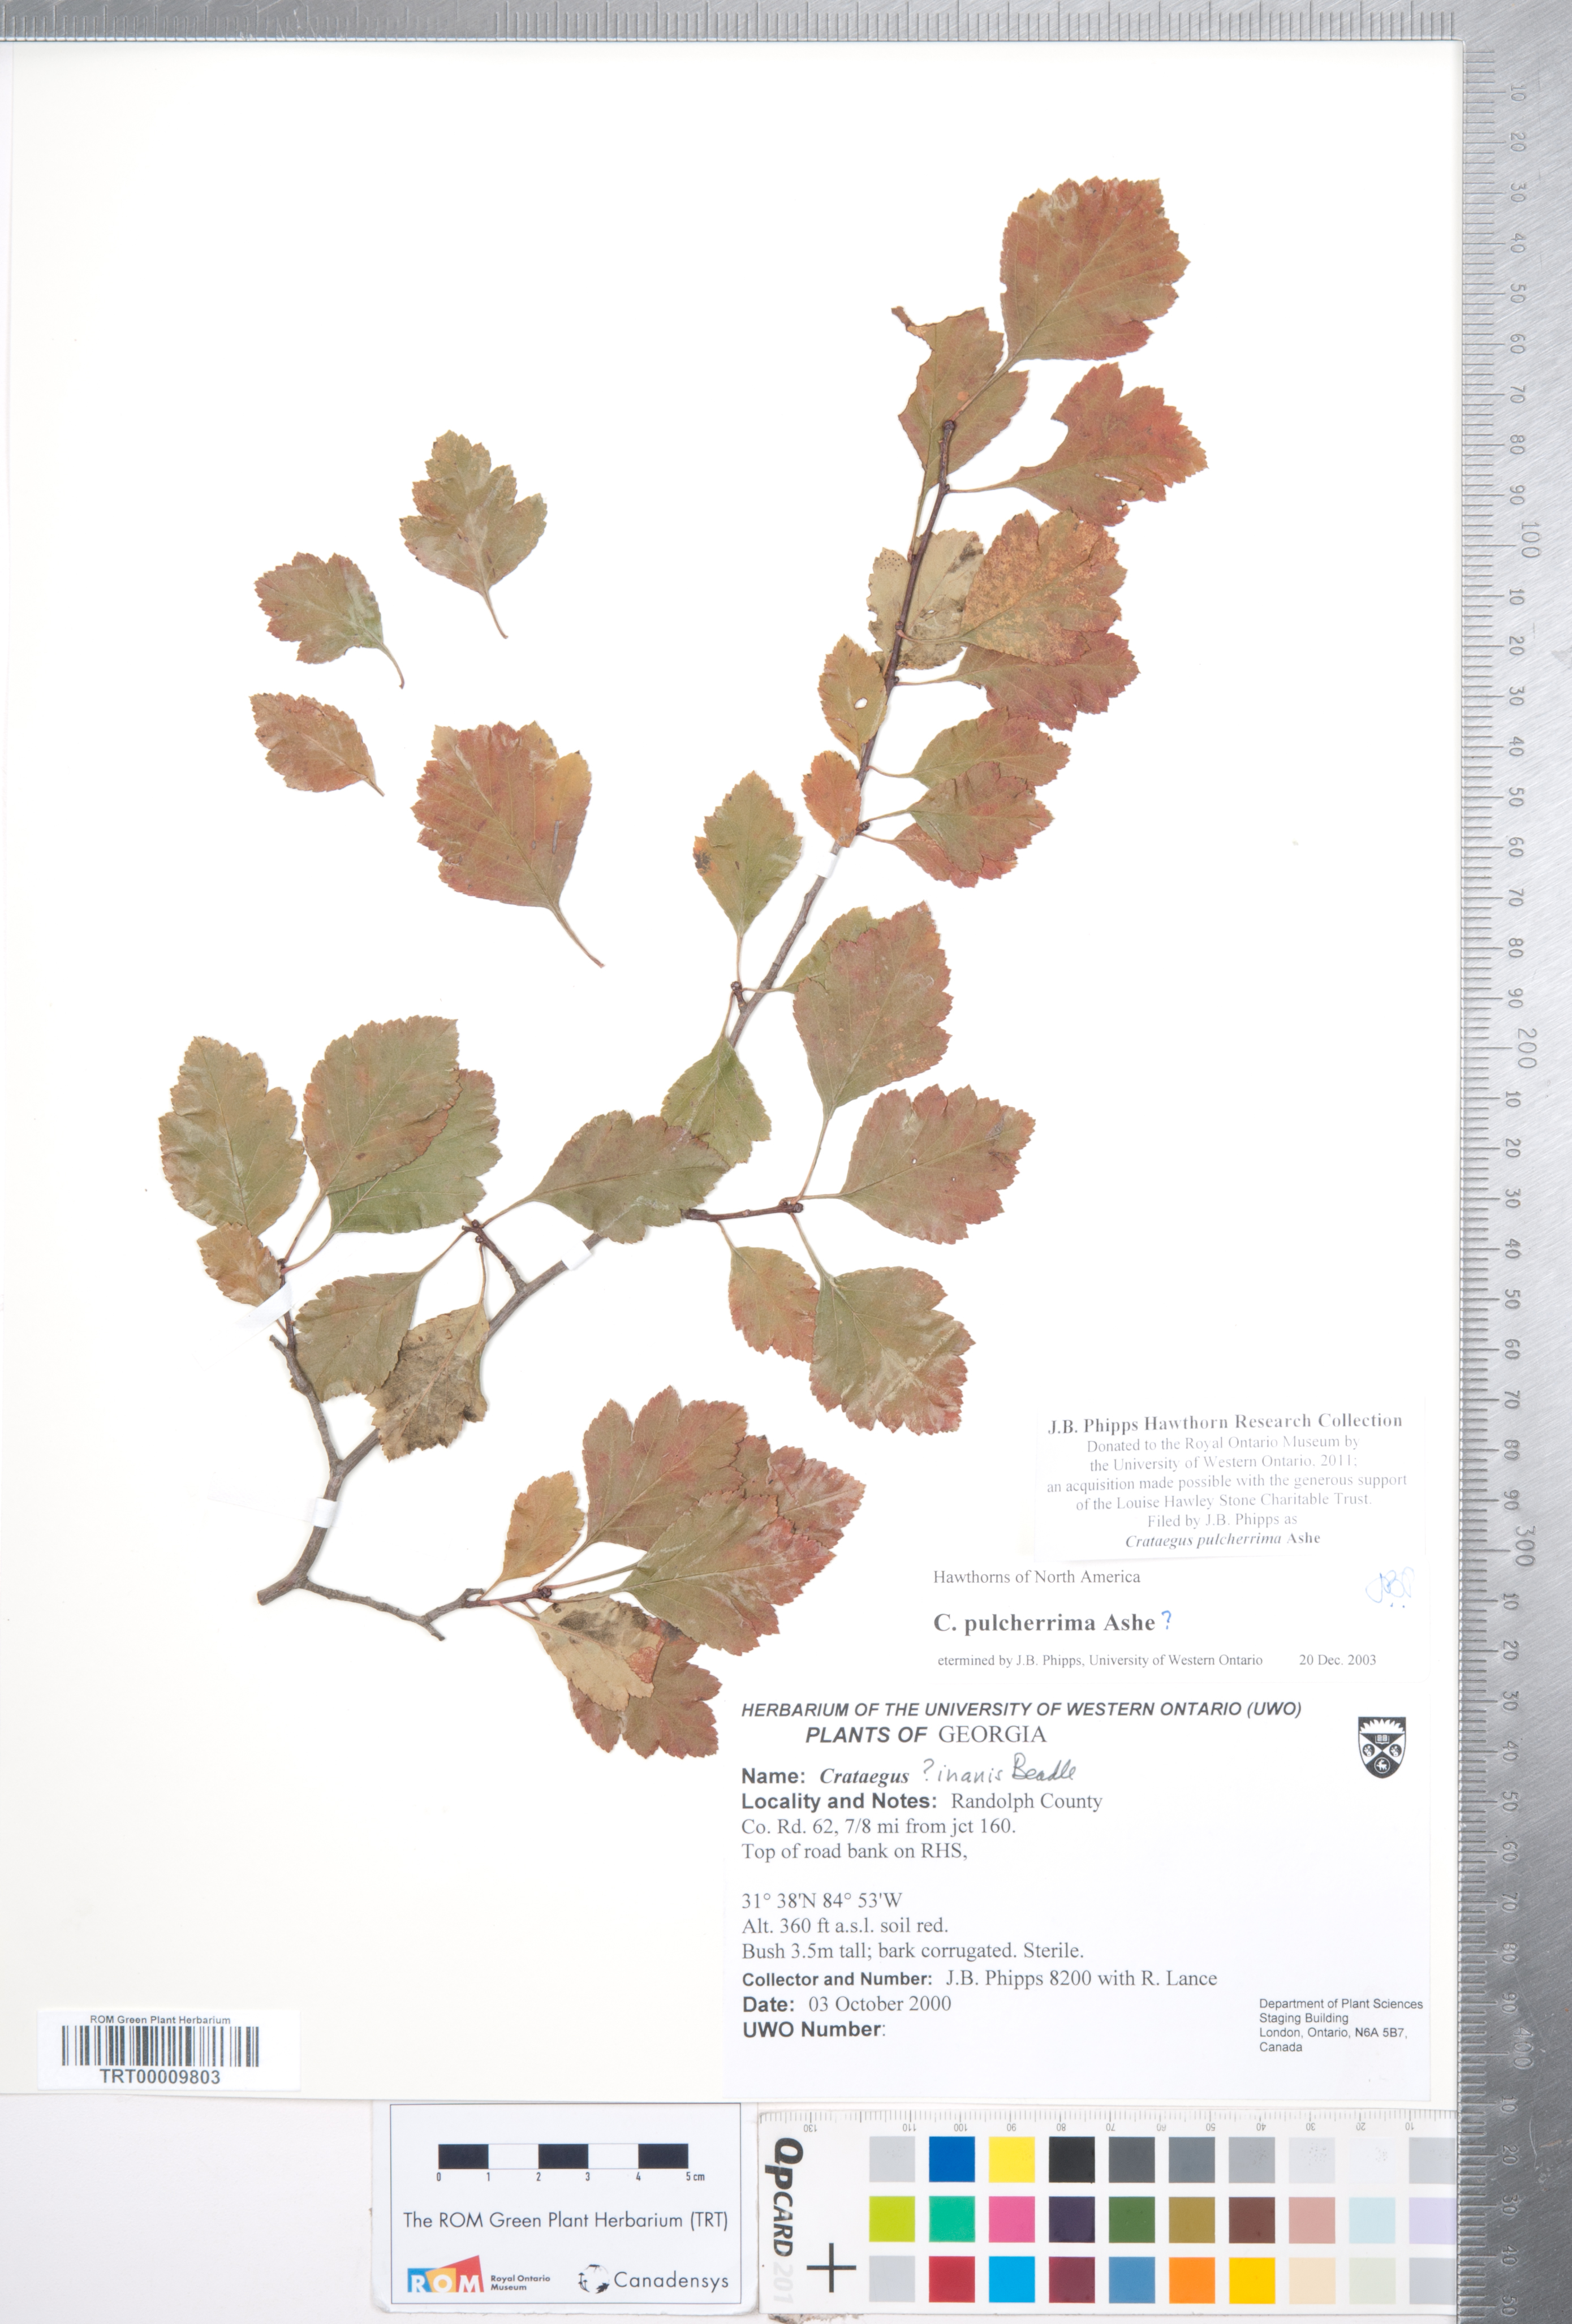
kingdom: Plantae
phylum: Tracheophyta
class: Magnoliopsida
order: Rosales
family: Rosaceae
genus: Crataegus
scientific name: Crataegus pulcherrima
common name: Beautiful hawthorn
